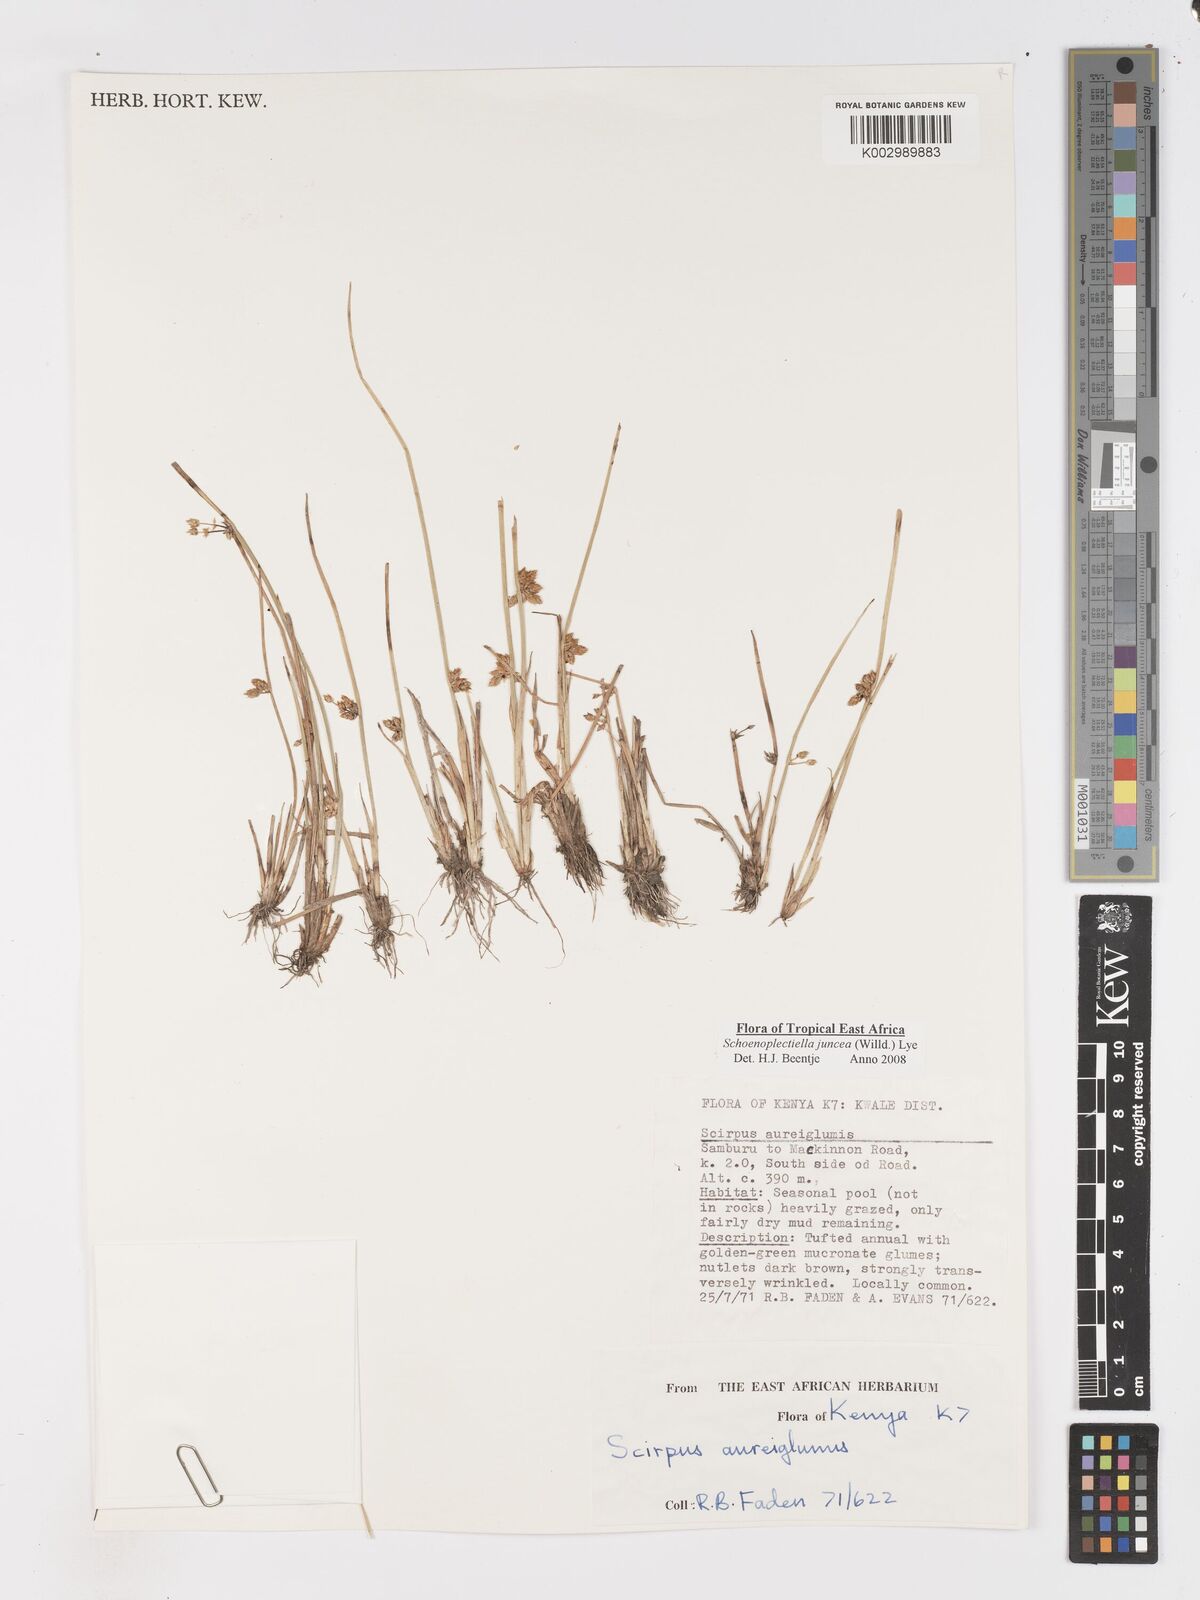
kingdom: Plantae
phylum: Tracheophyta
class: Liliopsida
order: Poales
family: Cyperaceae
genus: Schoenoplectiella
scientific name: Schoenoplectiella juncea
